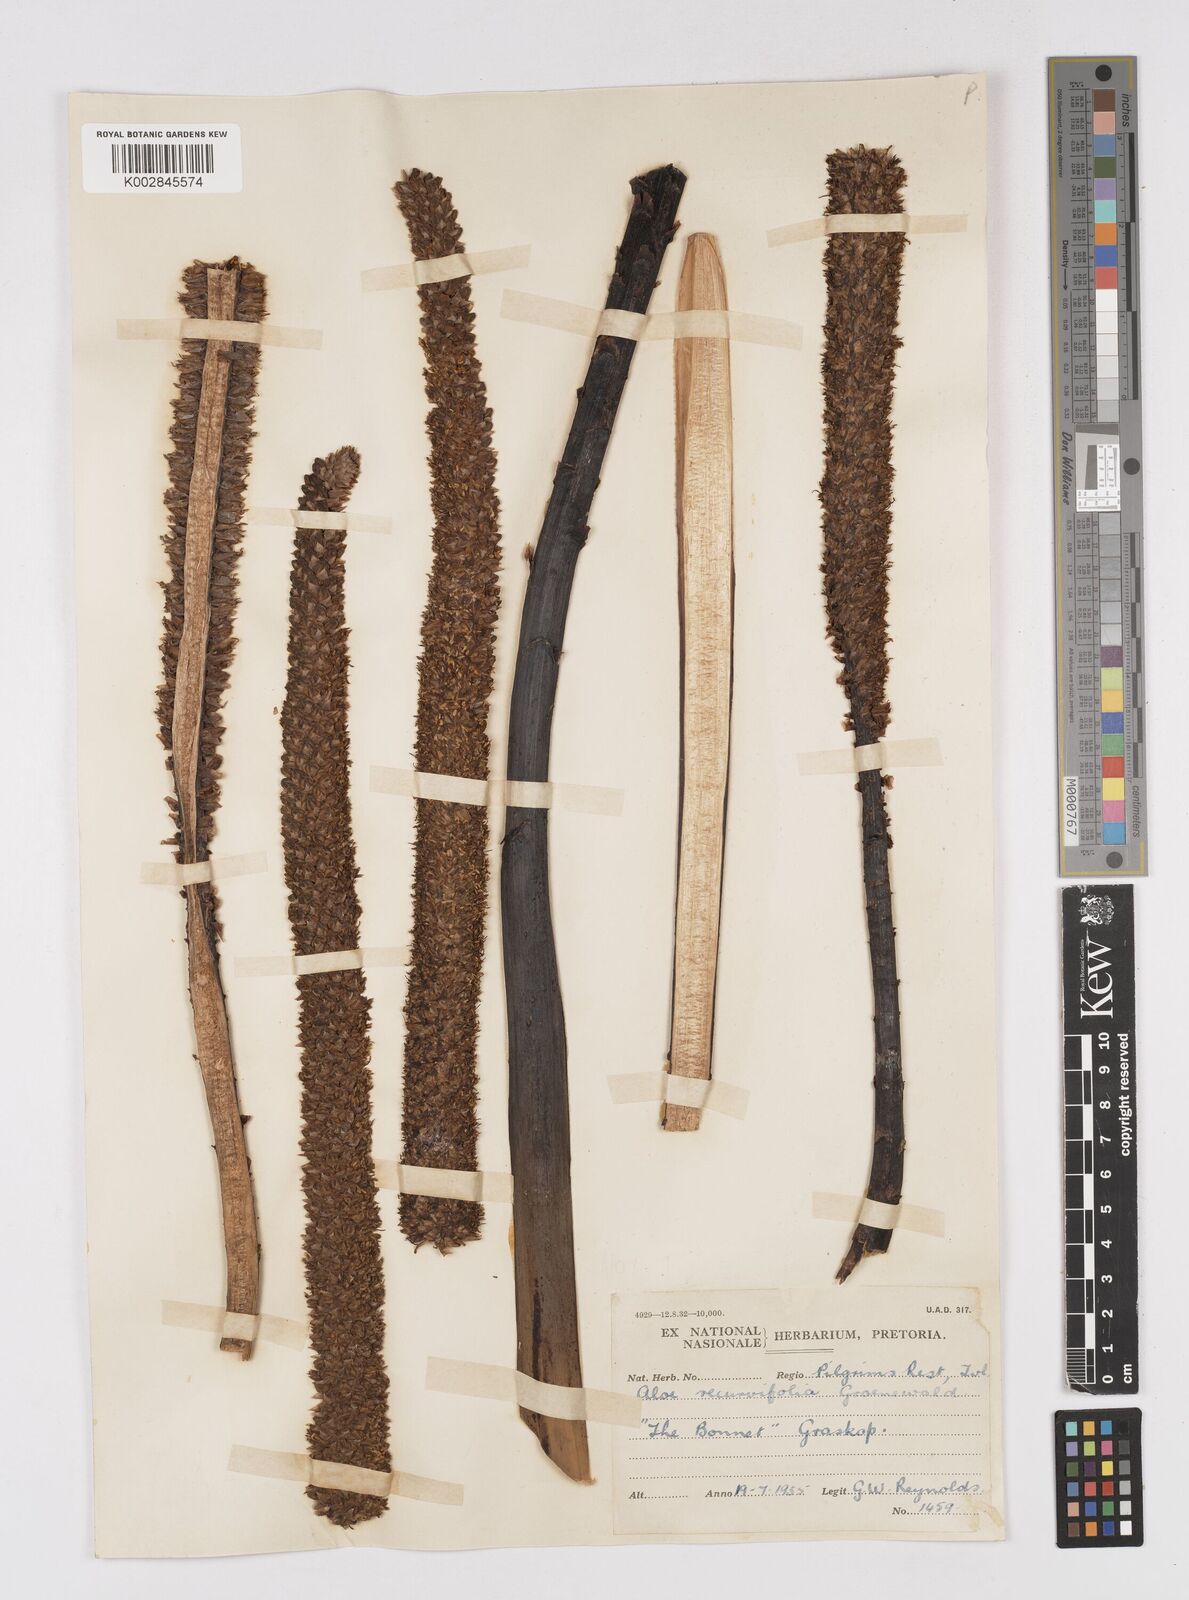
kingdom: Plantae
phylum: Tracheophyta
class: Liliopsida
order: Asparagales
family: Asphodelaceae
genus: Aloe
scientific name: Aloe alooides
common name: Graskop aloe
